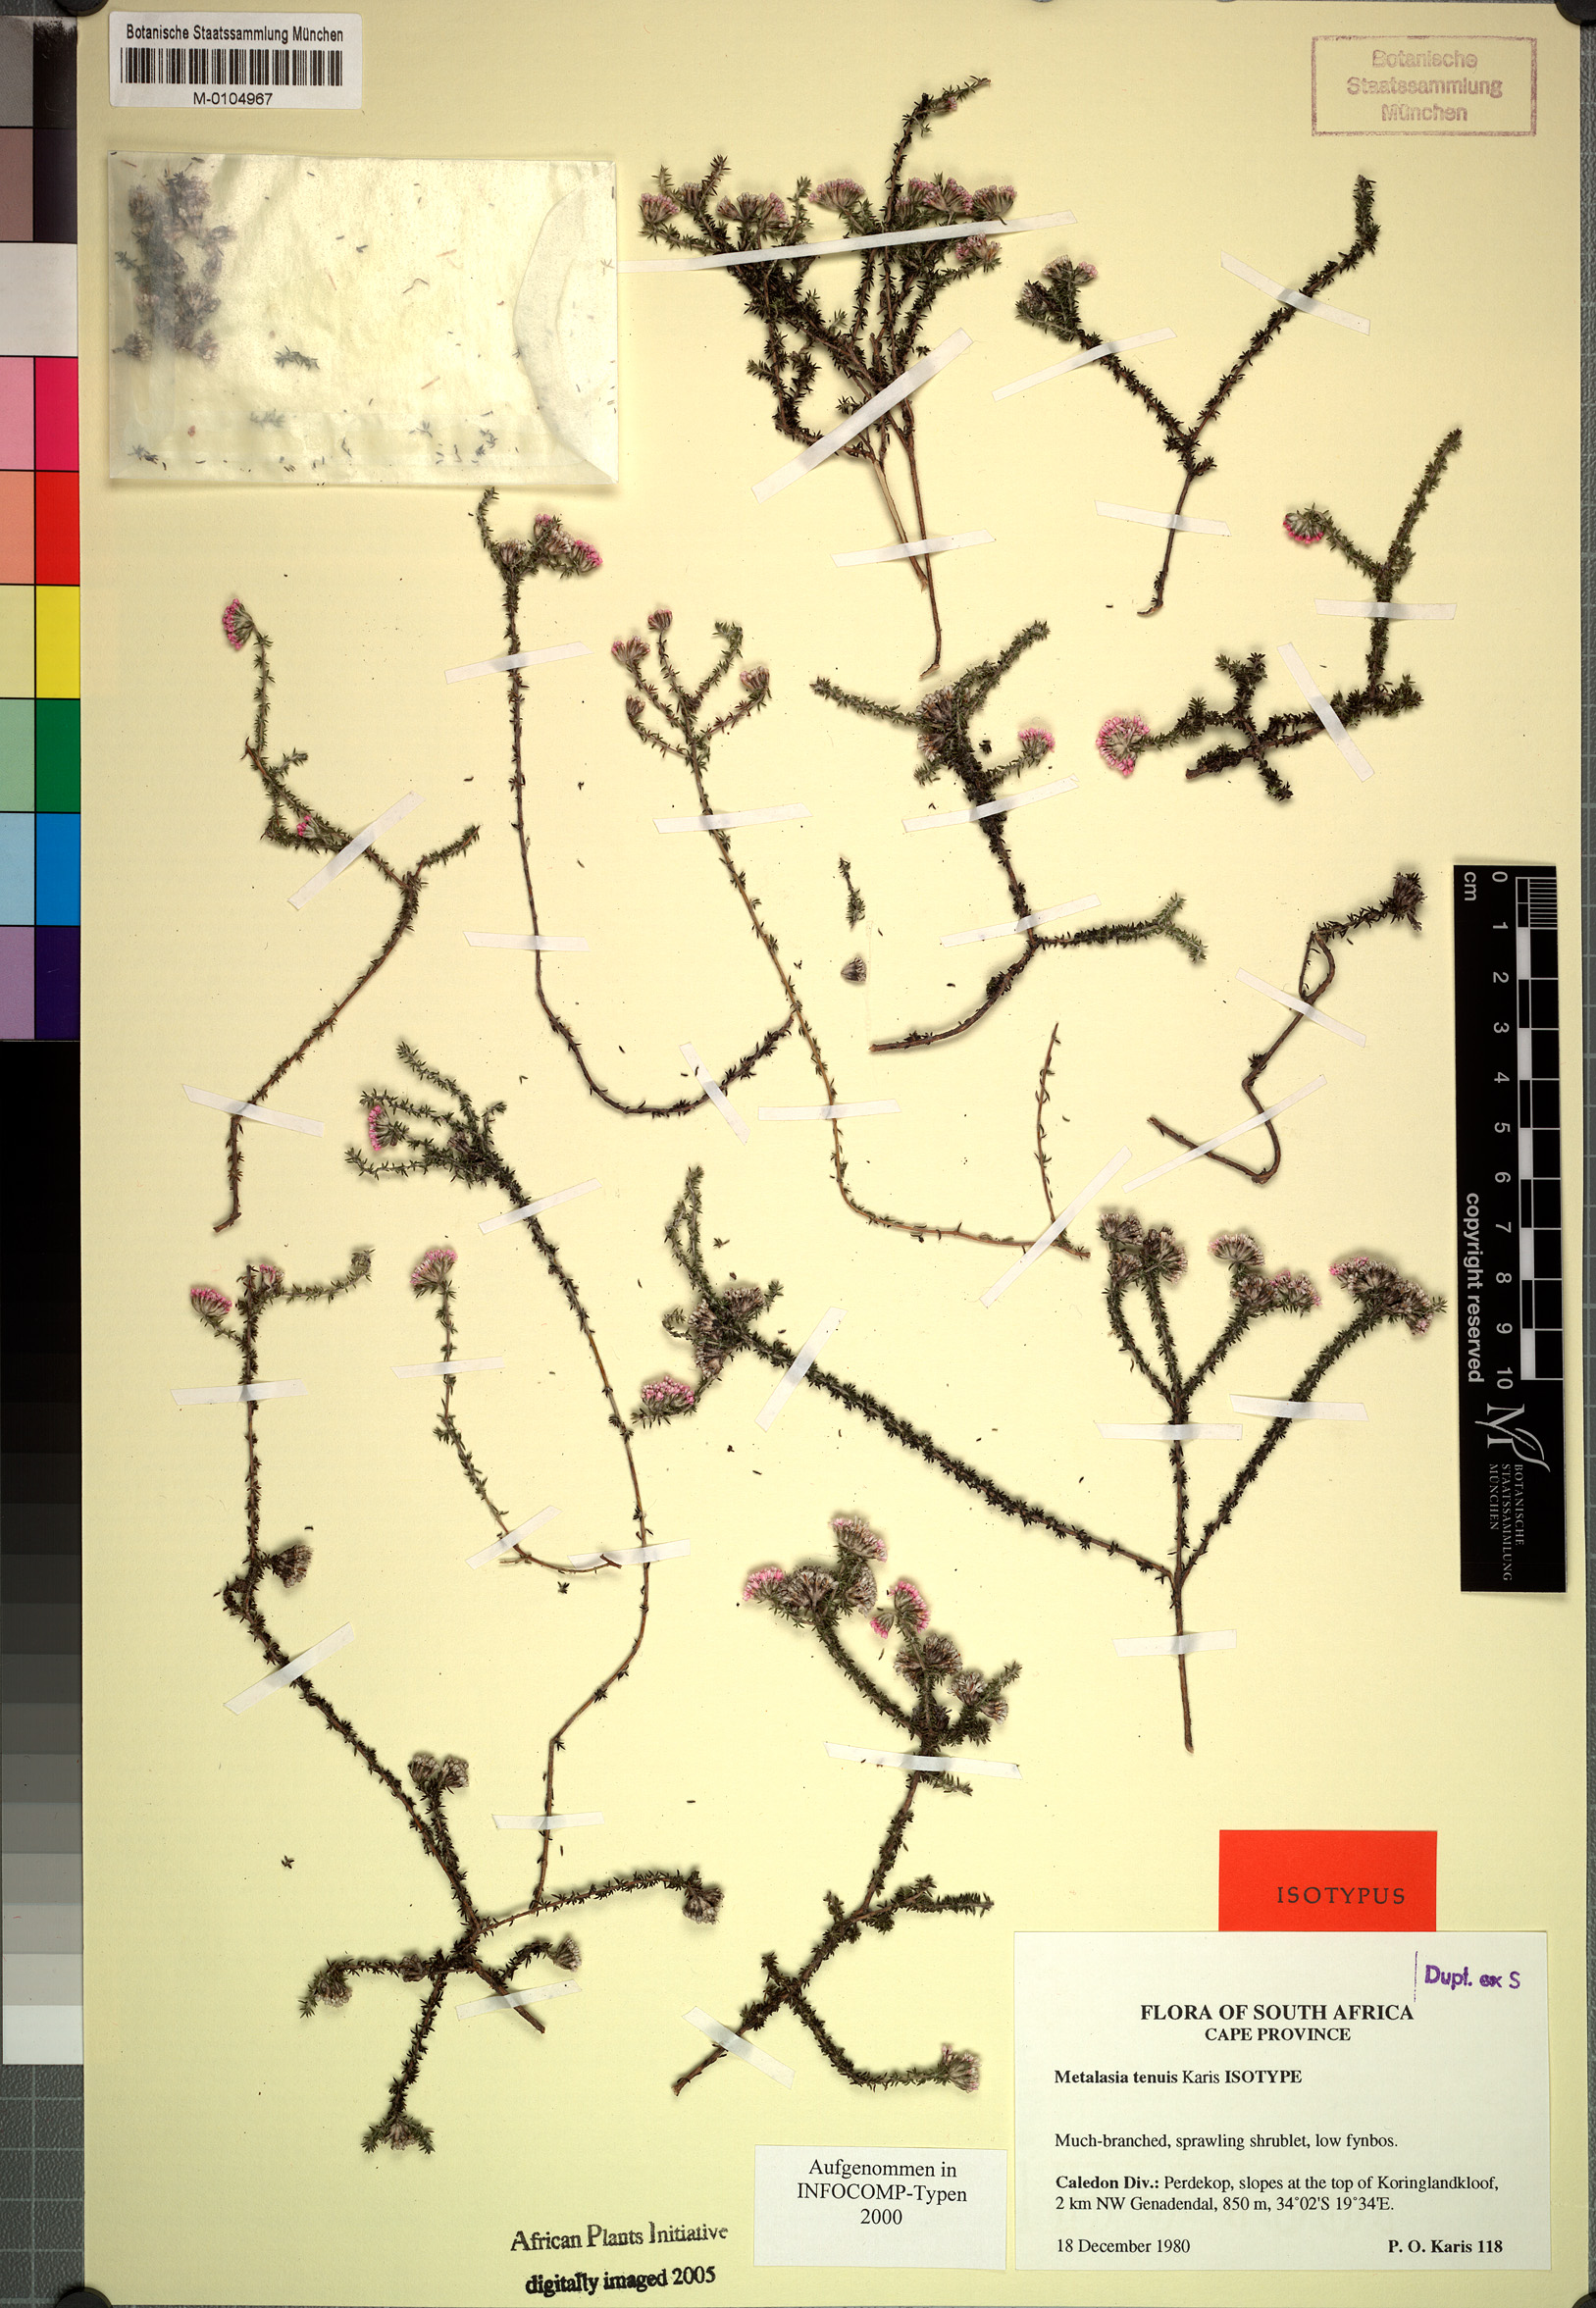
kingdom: Plantae
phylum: Tracheophyta
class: Magnoliopsida
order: Asterales
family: Asteraceae
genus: Metalasia
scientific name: Metalasia tenuis
